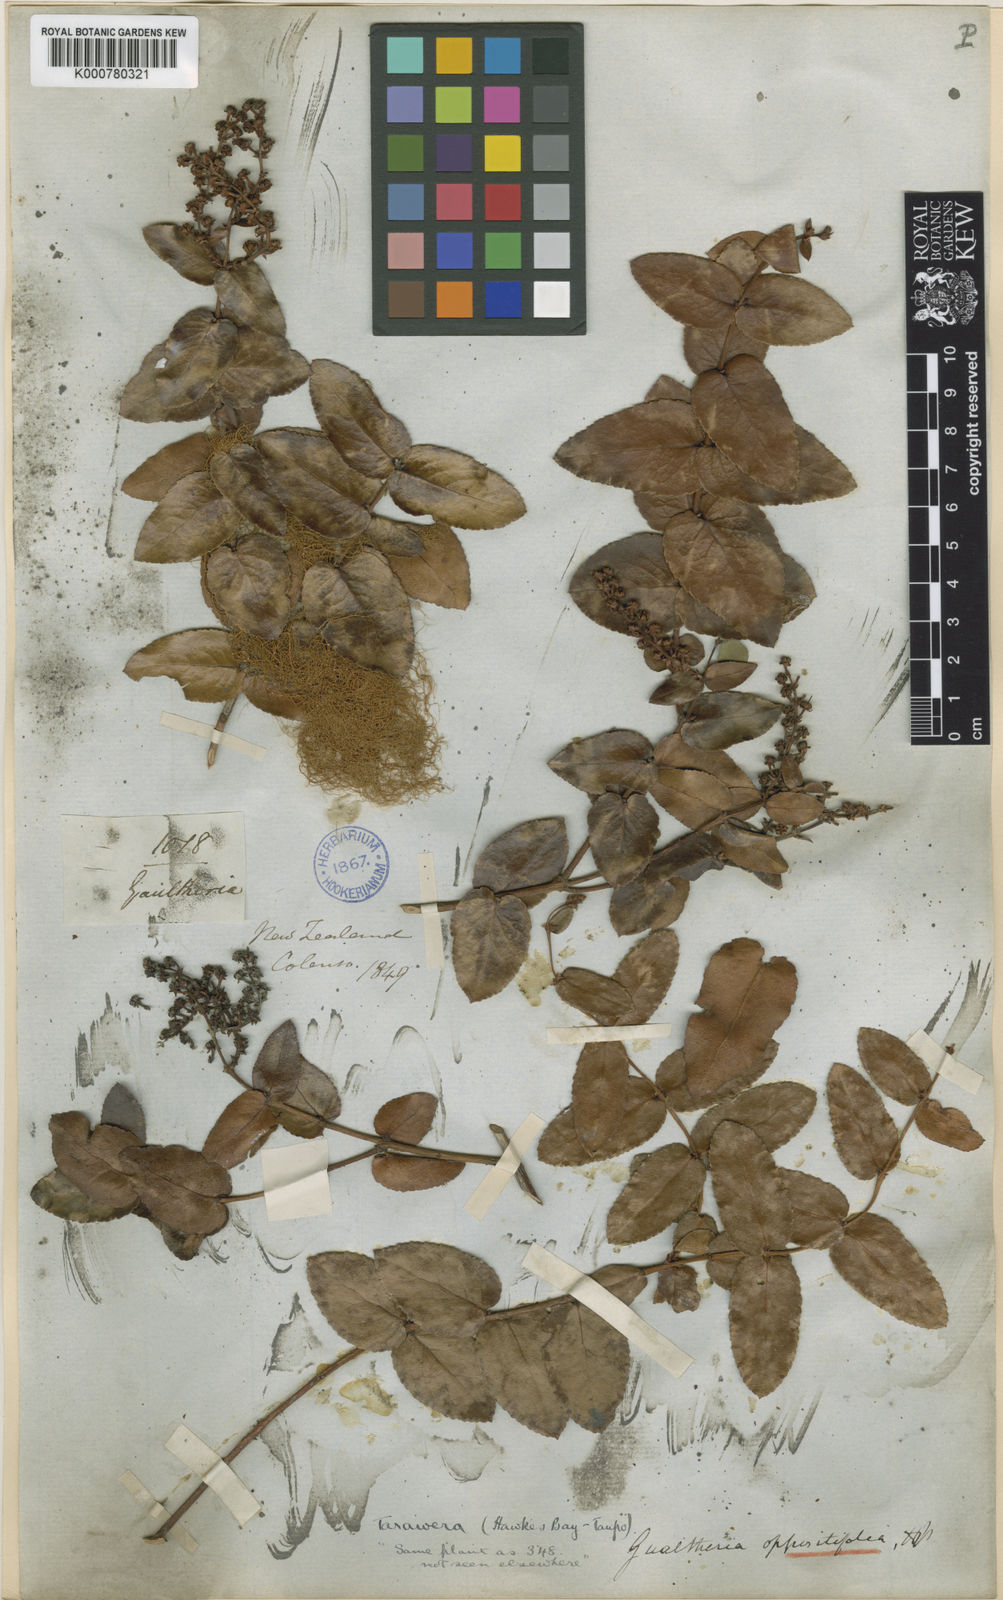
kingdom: Plantae
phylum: Tracheophyta
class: Magnoliopsida
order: Ericales
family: Ericaceae
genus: Gaultheria
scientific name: Gaultheria oppositifolia
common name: Snowberry
